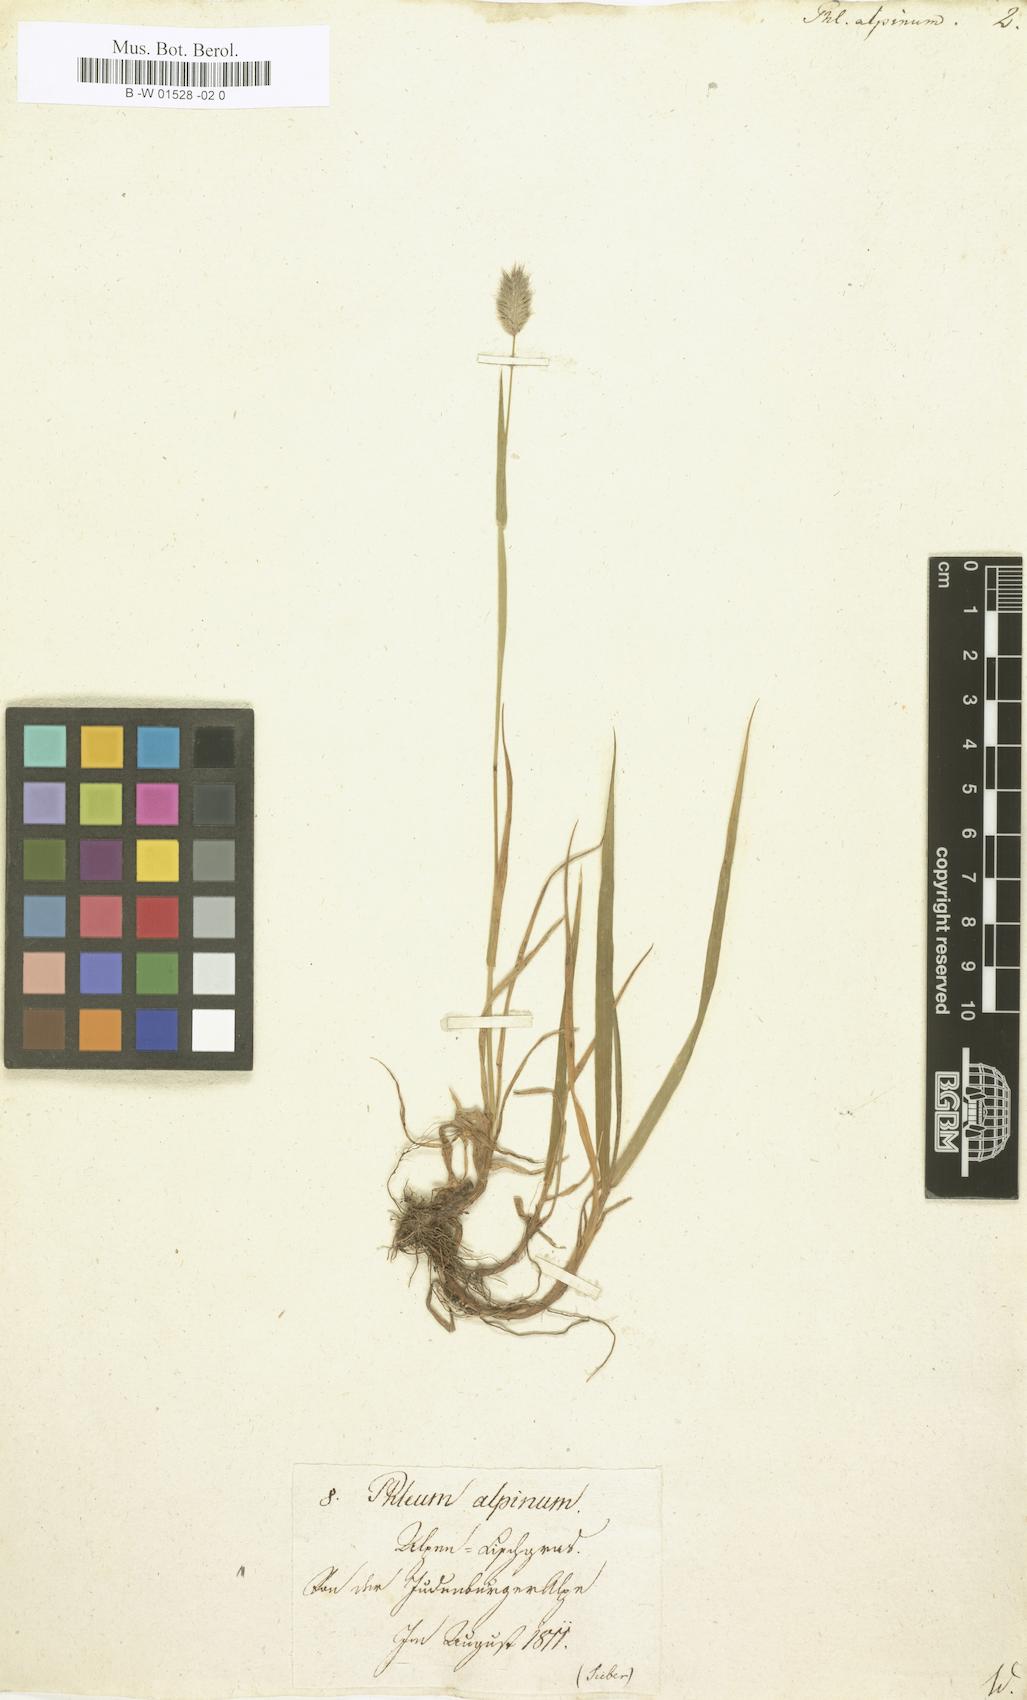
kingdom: Plantae
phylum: Tracheophyta
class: Liliopsida
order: Poales
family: Poaceae
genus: Phleum
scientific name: Phleum alpinum
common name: Alpine cat's-tail
